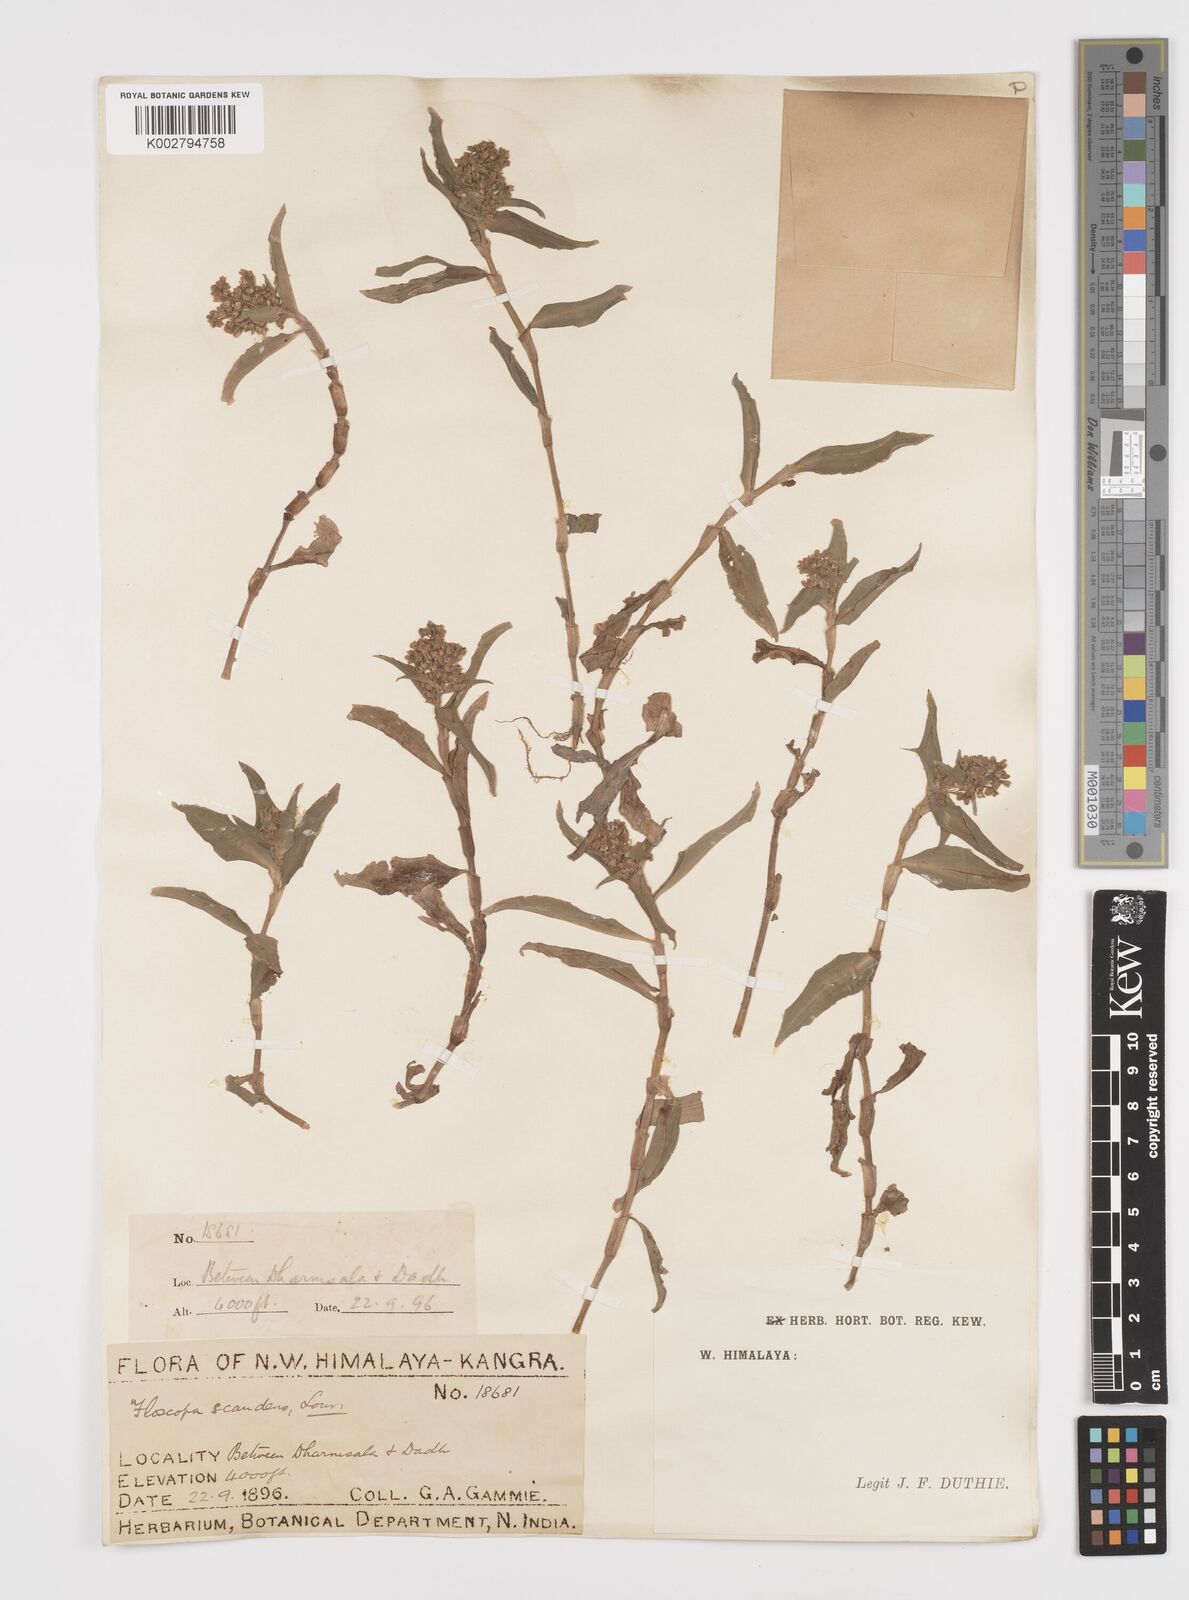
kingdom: Plantae
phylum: Tracheophyta
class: Liliopsida
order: Commelinales
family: Commelinaceae
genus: Floscopa
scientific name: Floscopa scandens
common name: Climbing flower cup
